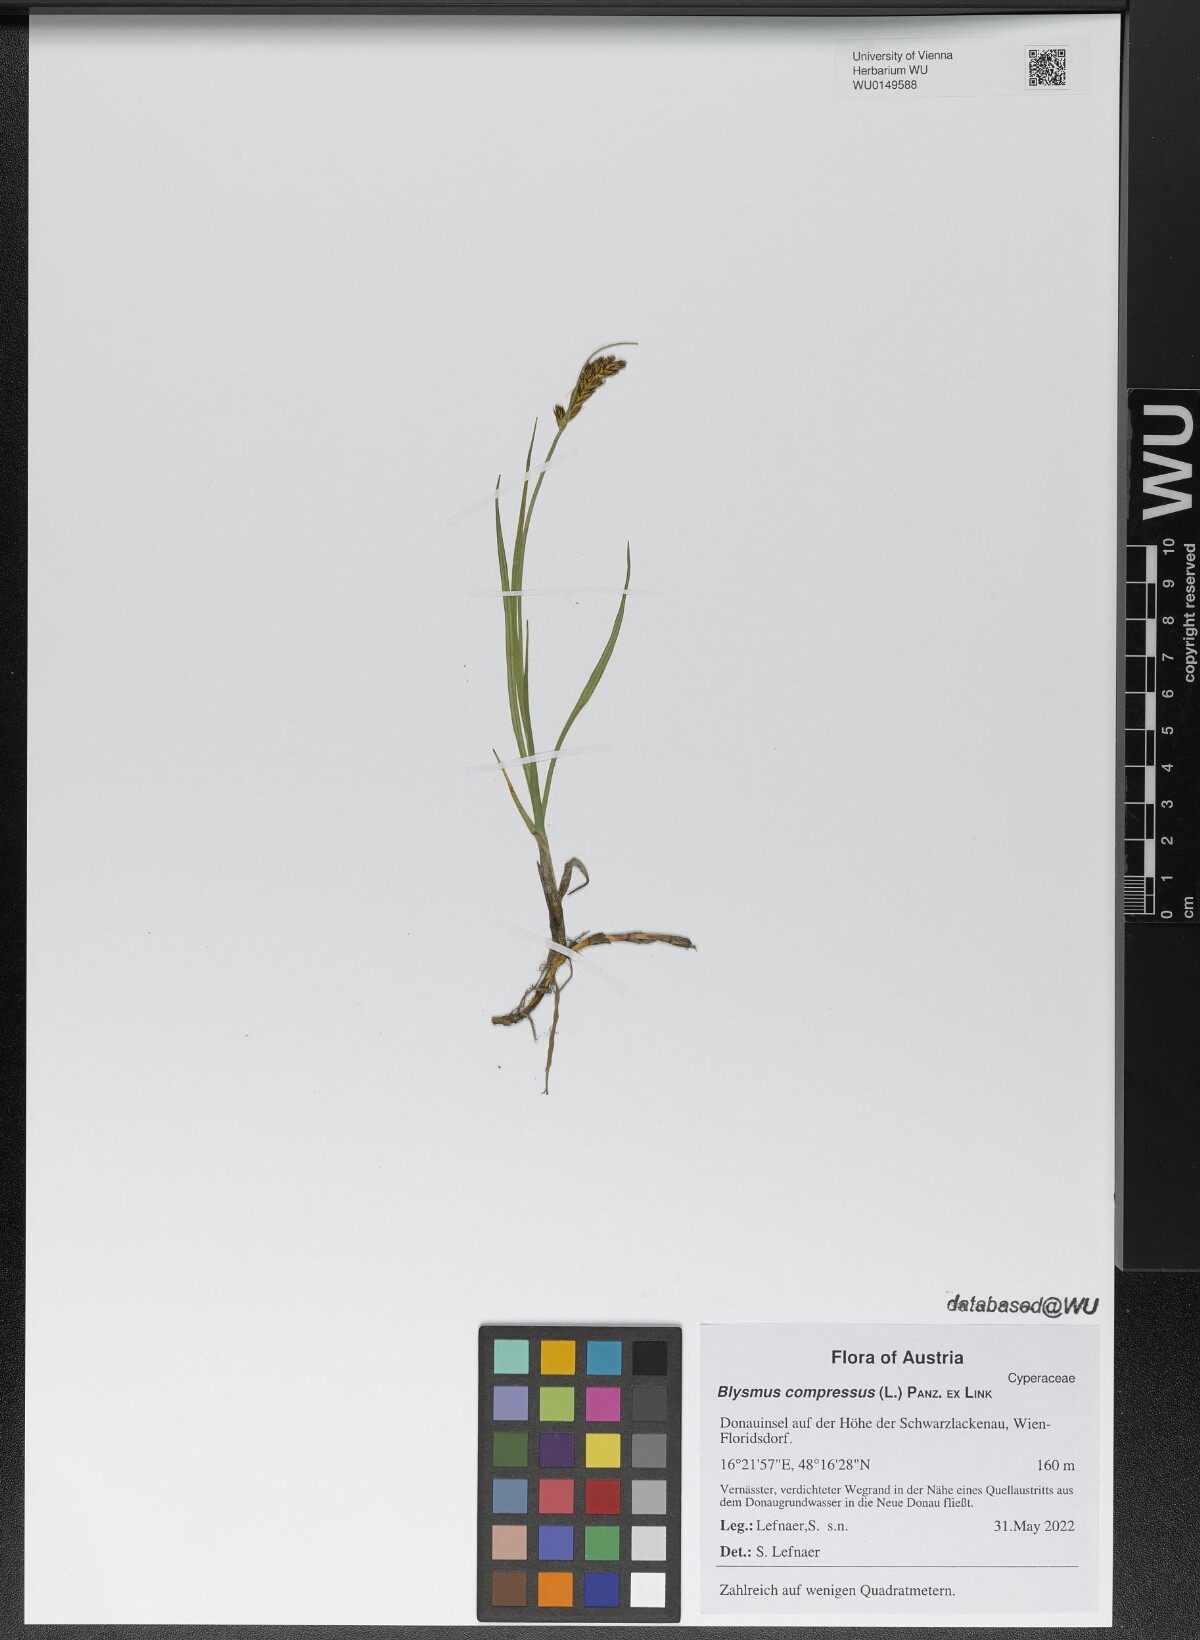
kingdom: Plantae
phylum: Tracheophyta
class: Liliopsida
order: Poales
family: Cyperaceae
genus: Blysmus
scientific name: Blysmus compressus
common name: Flat-sedge
